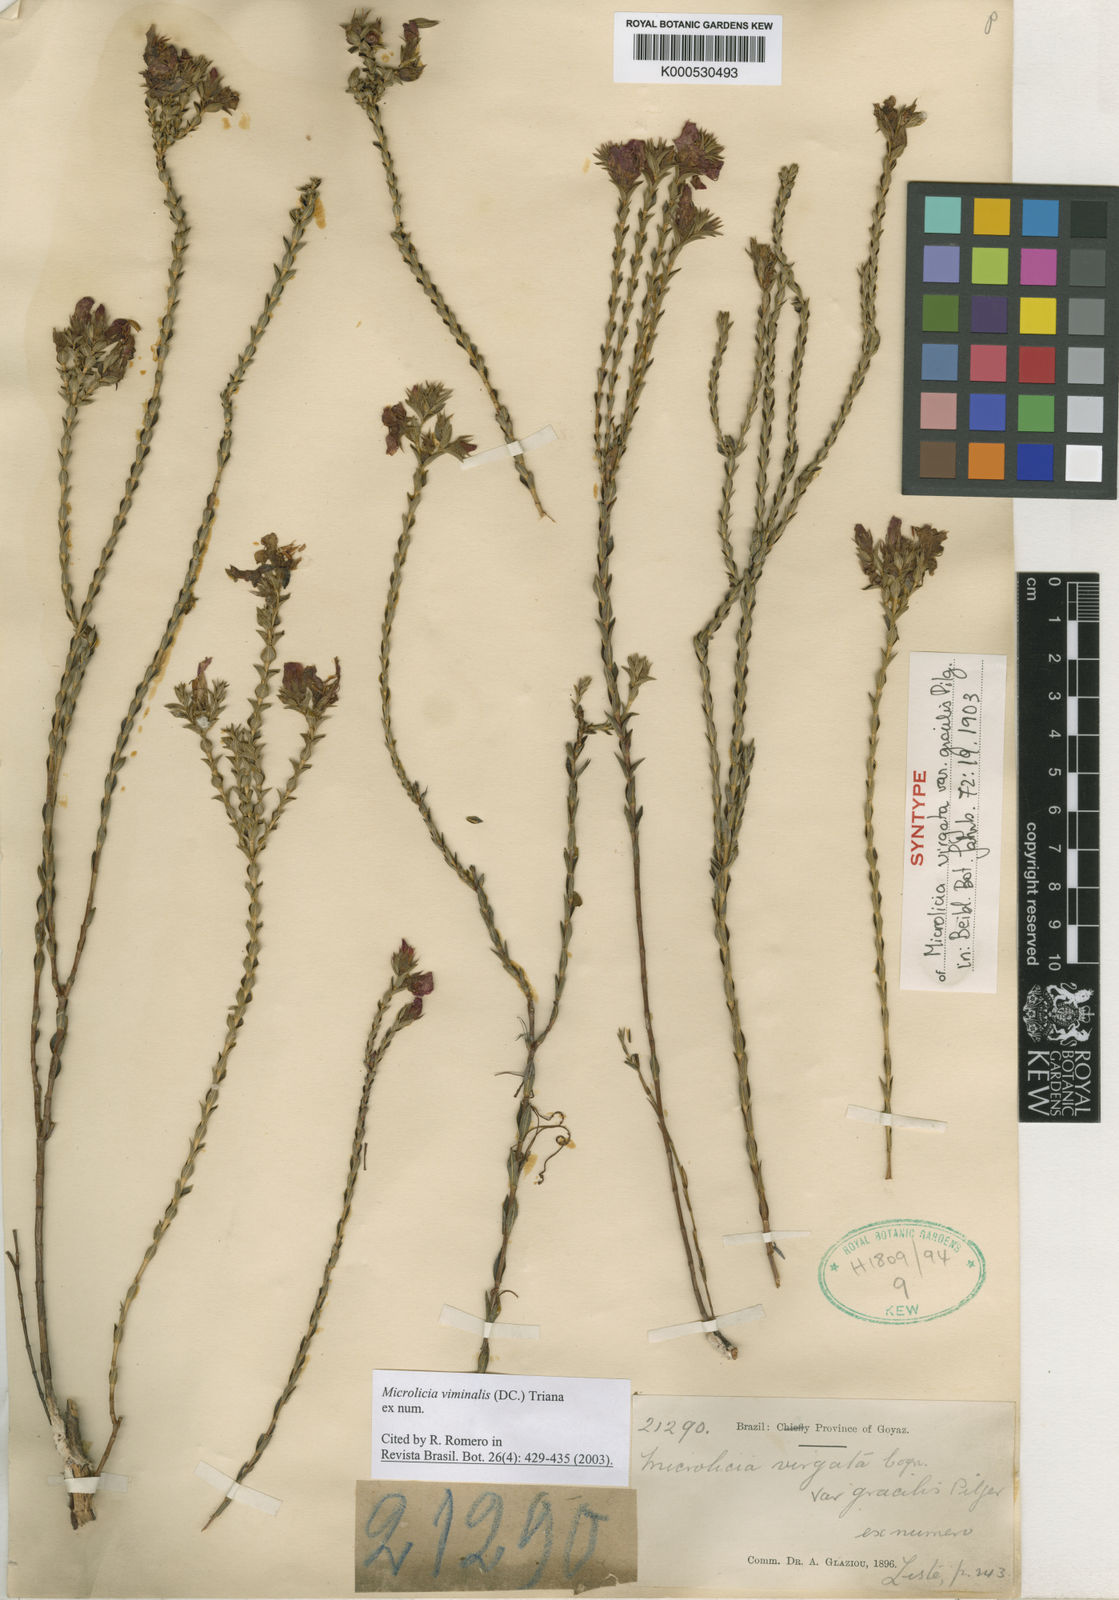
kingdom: Plantae
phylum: Tracheophyta
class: Magnoliopsida
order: Myrtales
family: Melastomataceae
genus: Microlicia
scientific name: Microlicia viminalis
